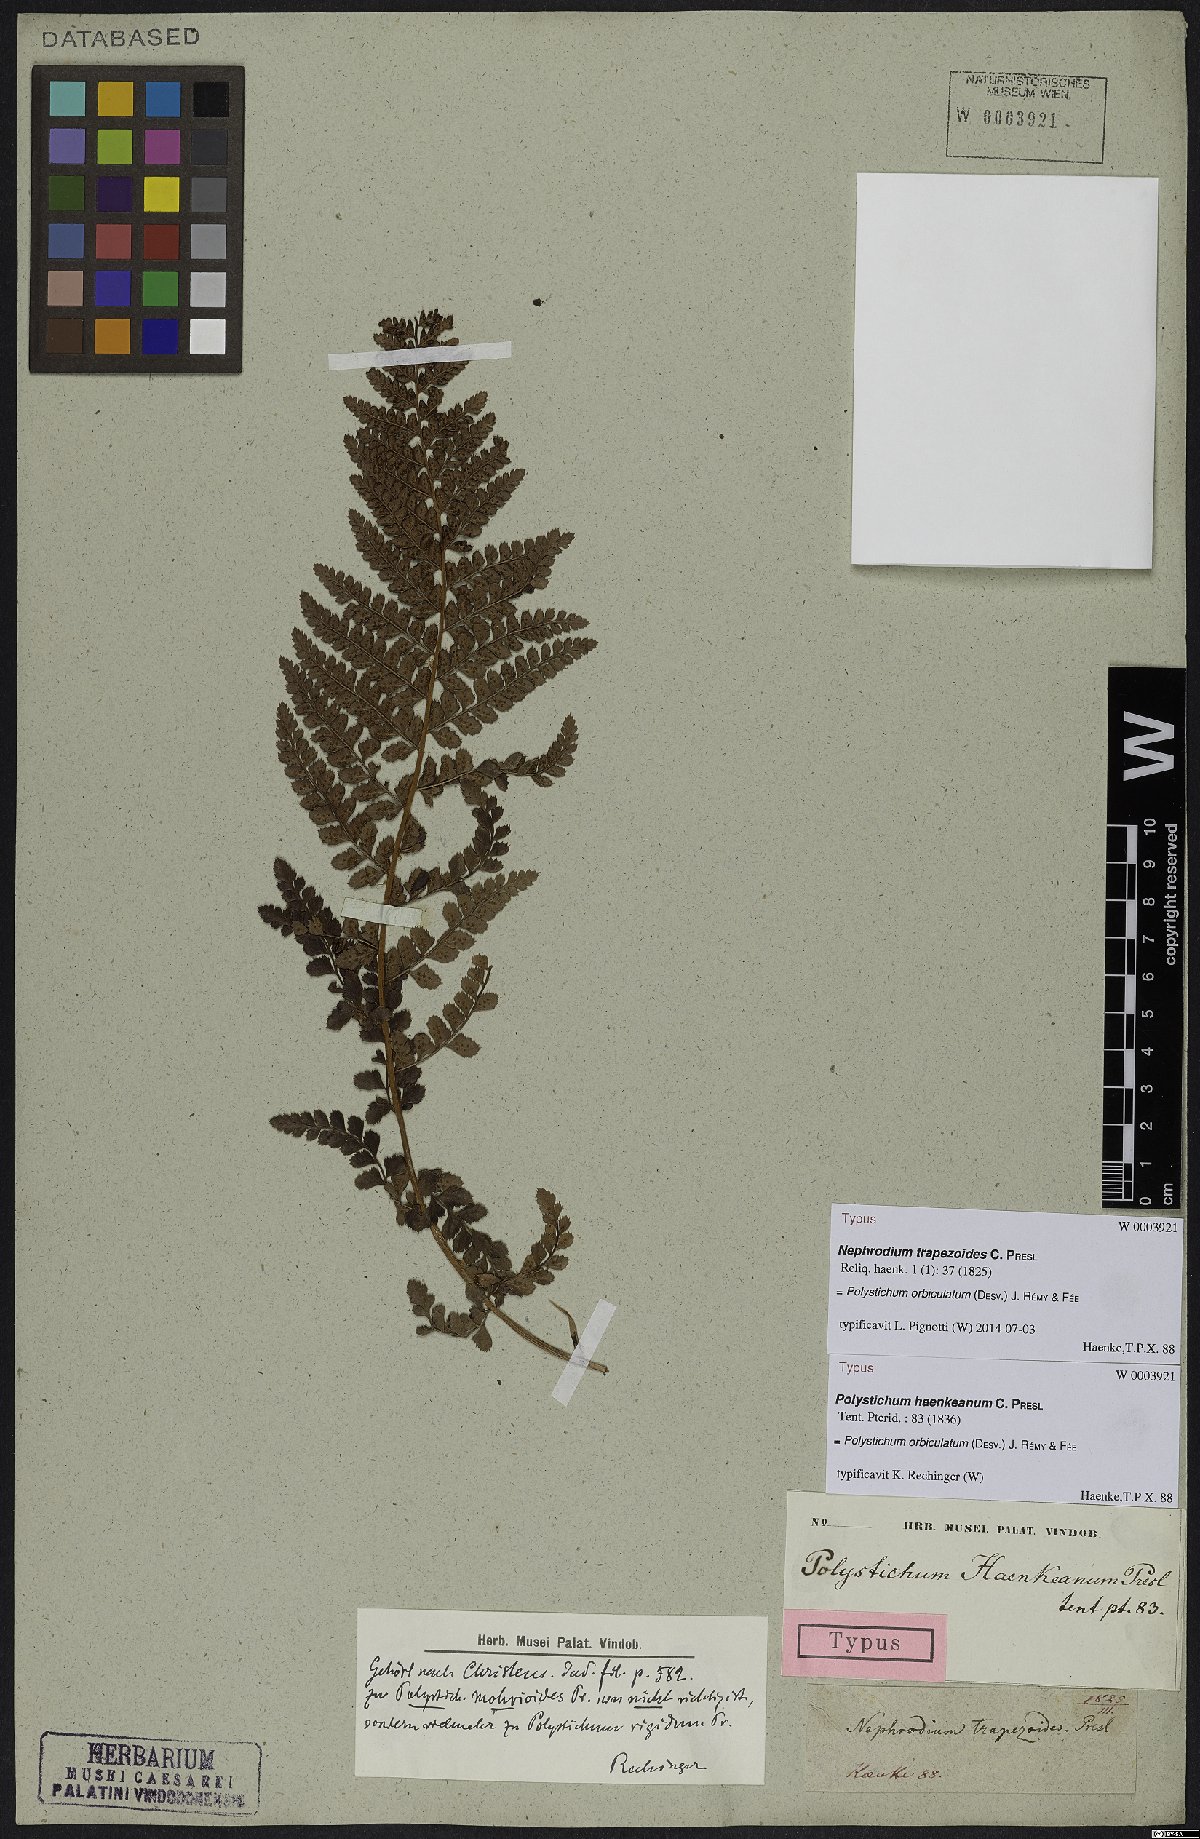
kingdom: Plantae
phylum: Tracheophyta
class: Polypodiopsida
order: Polypodiales
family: Dryopteridaceae
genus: Polystichum
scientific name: Polystichum orbiculatum
